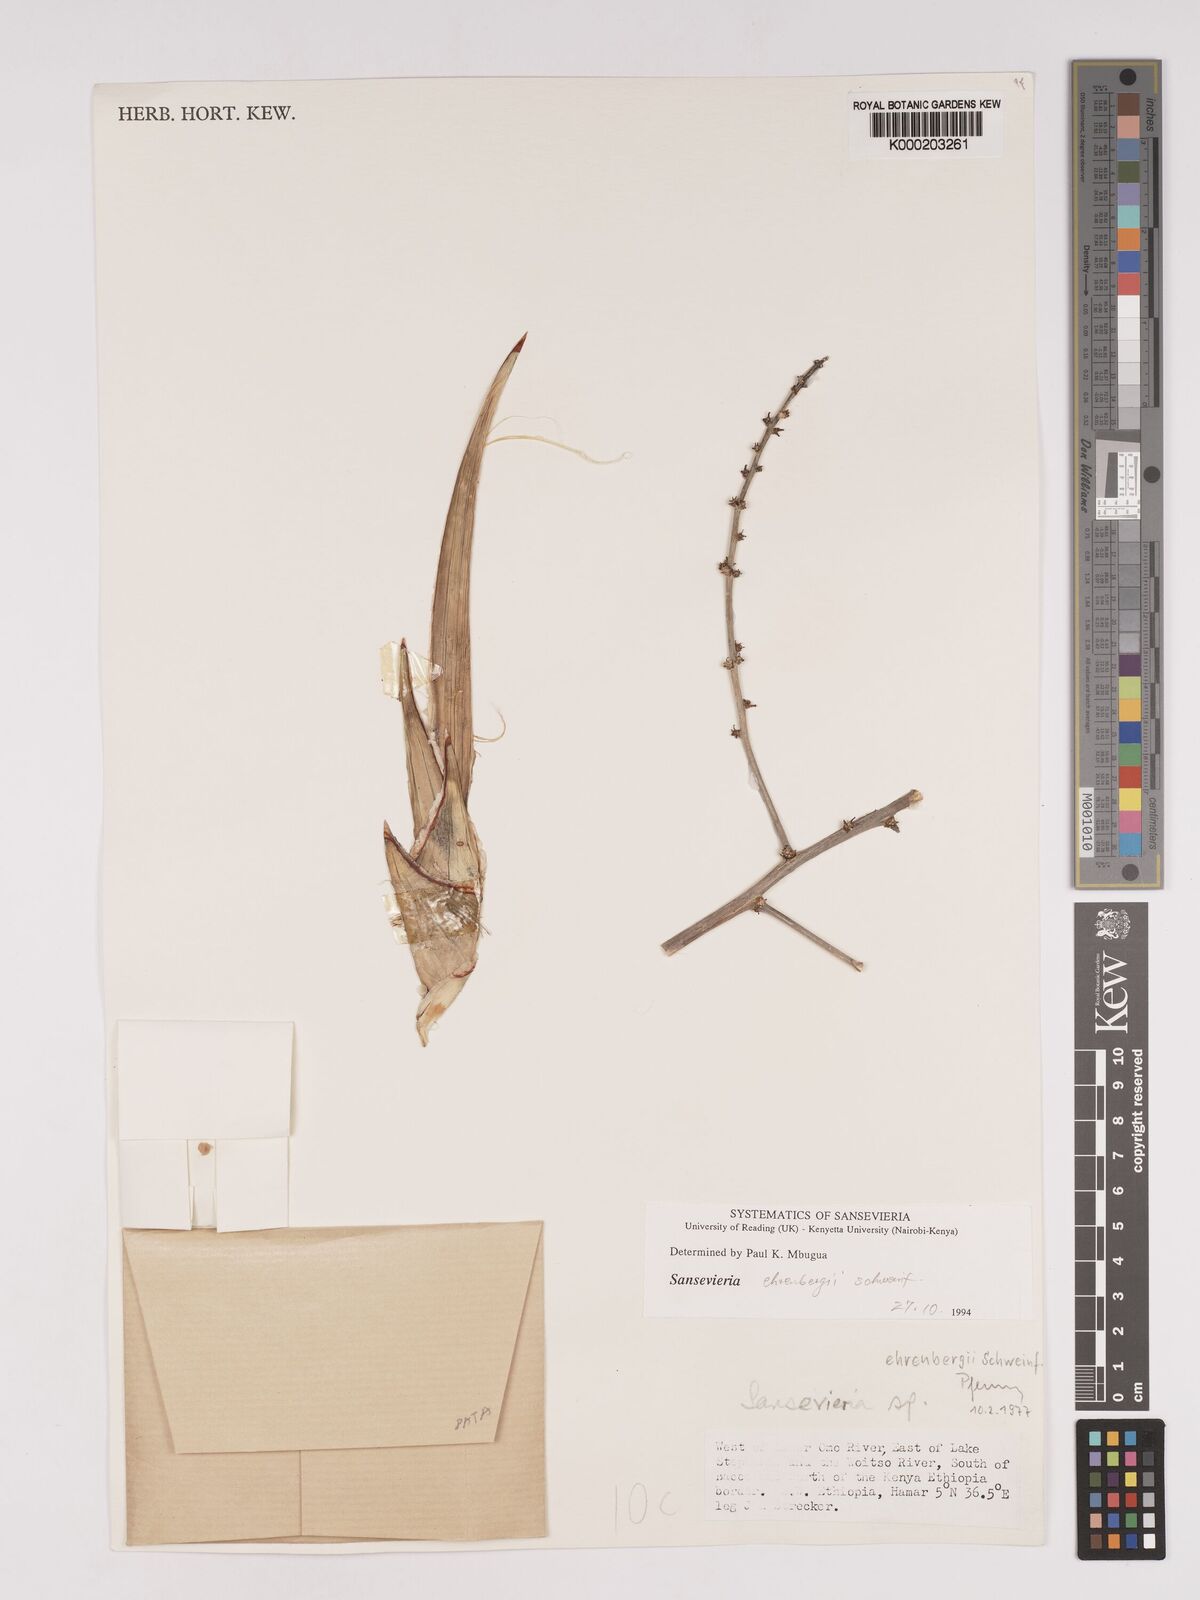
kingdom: Plantae
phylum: Tracheophyta
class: Liliopsida
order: Asparagales
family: Asparagaceae
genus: Dracaena
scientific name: Dracaena hanningtonii
